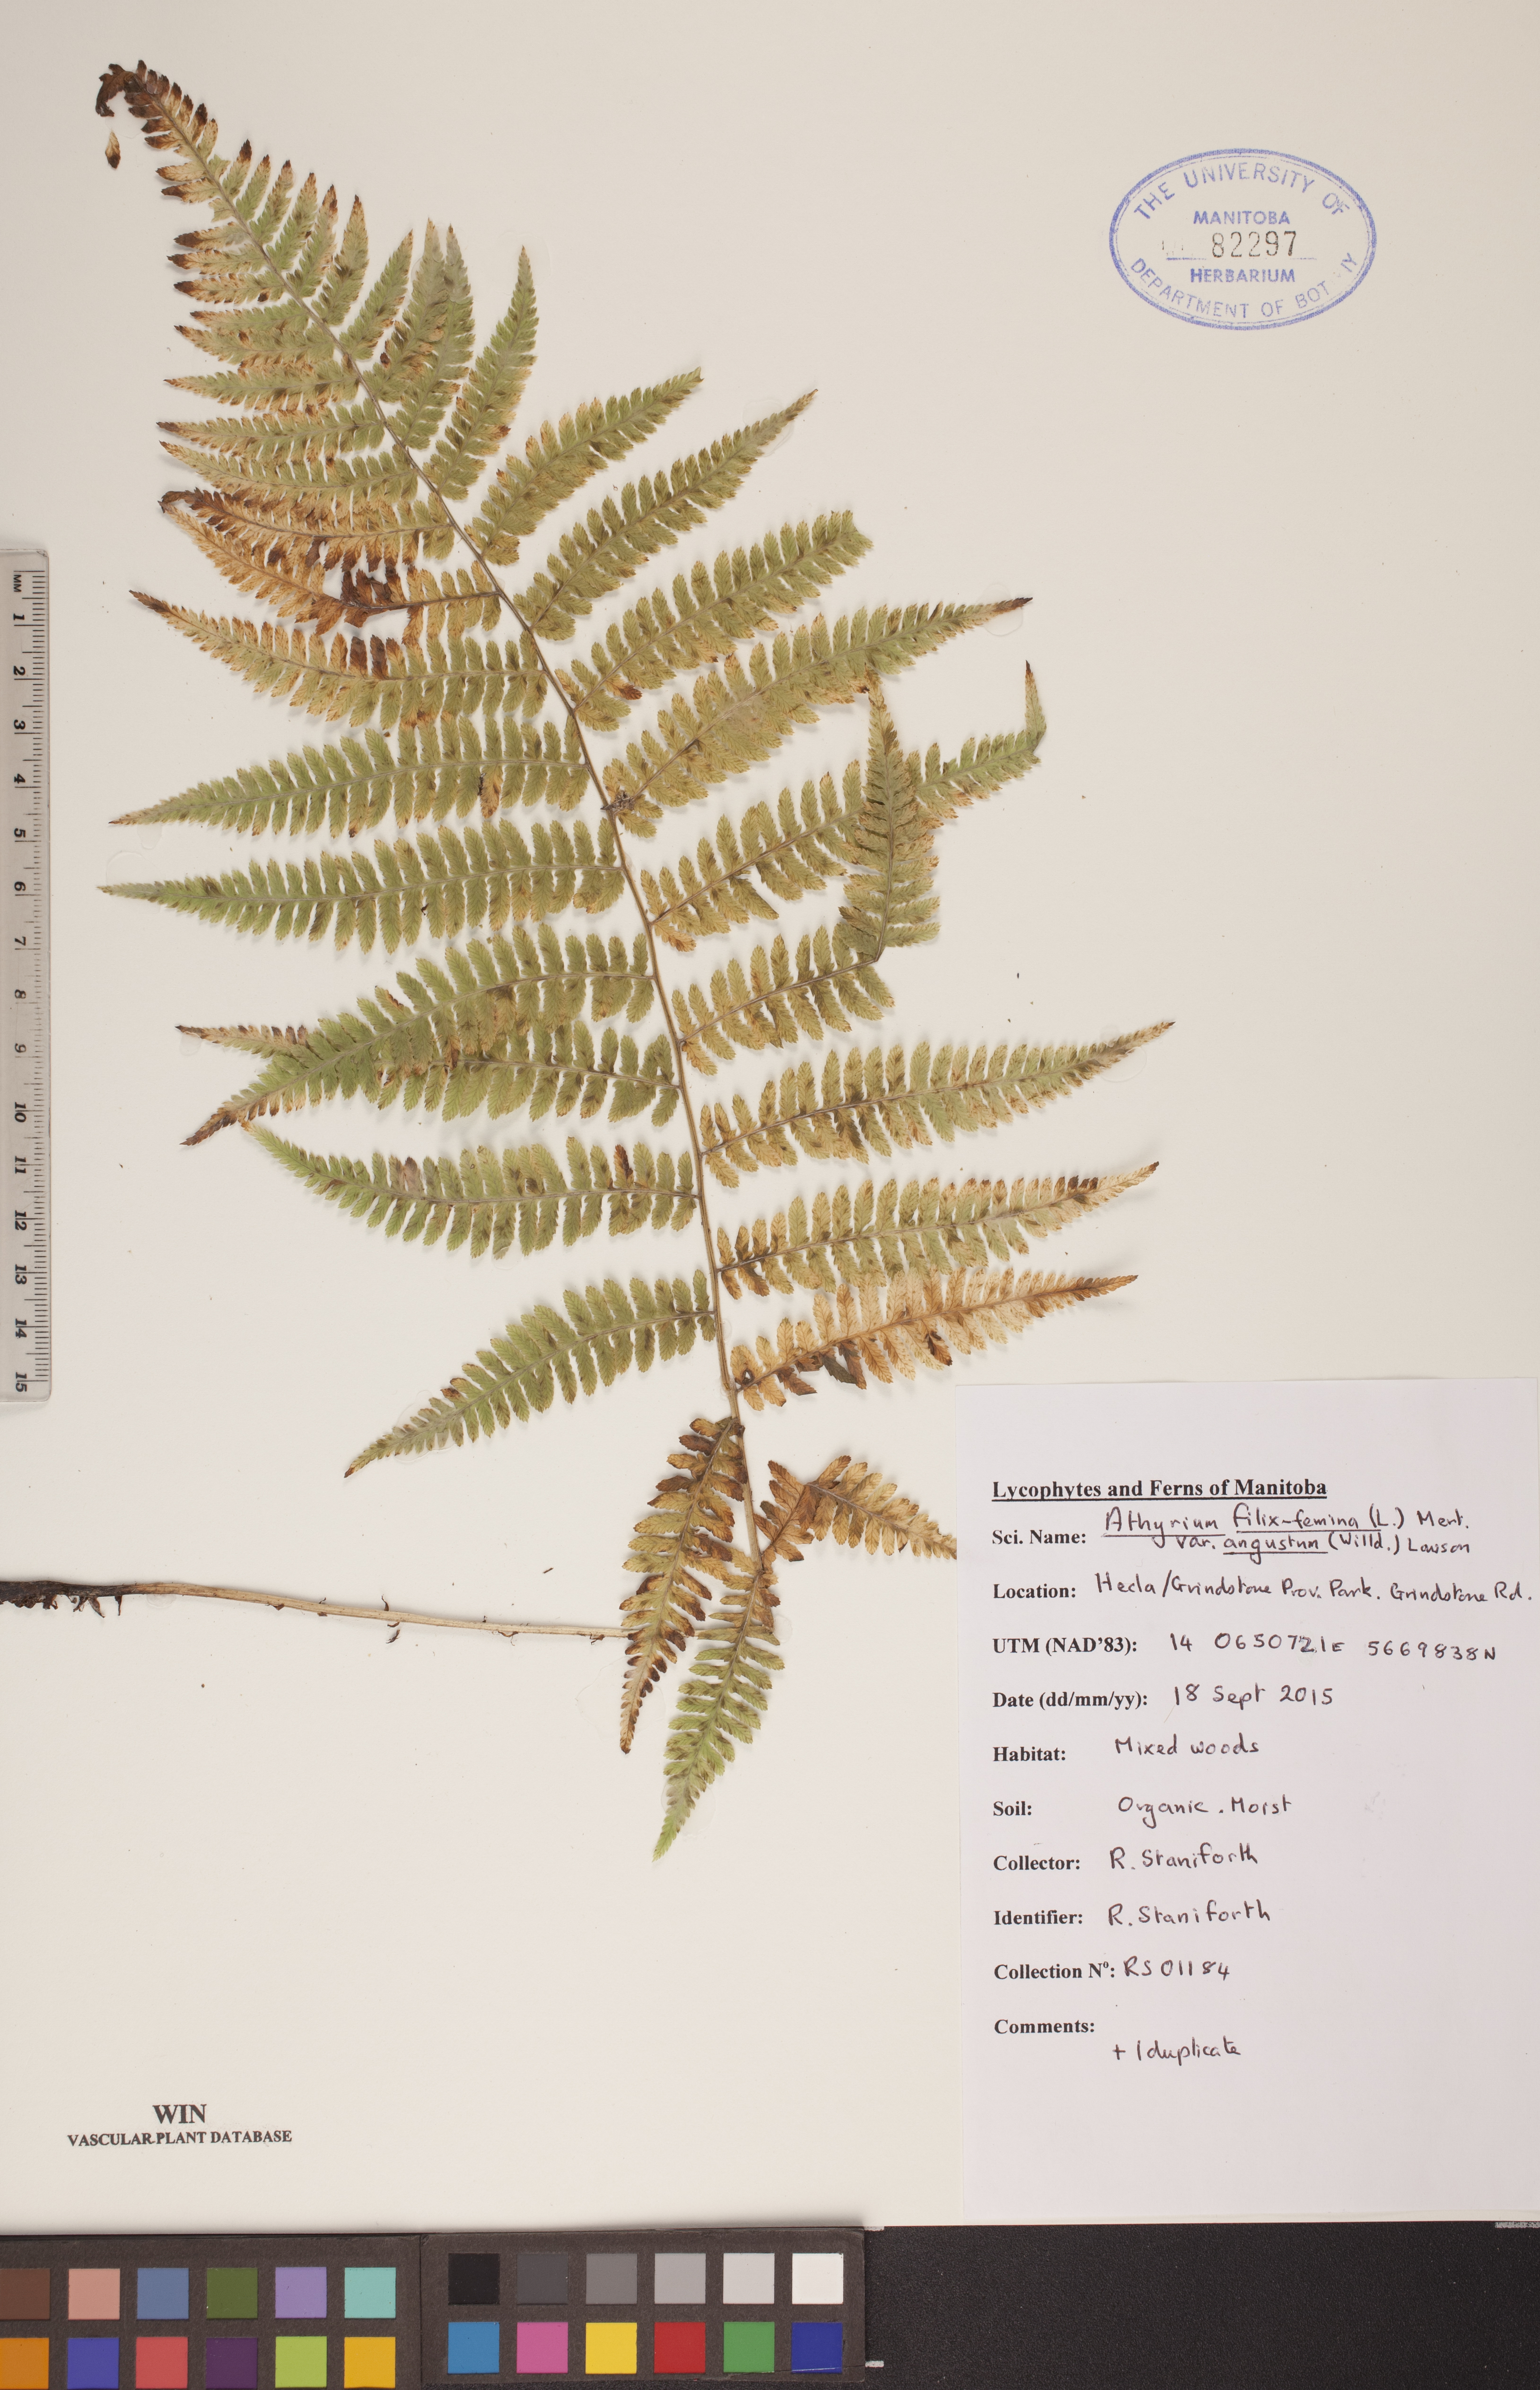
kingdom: Plantae
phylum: Tracheophyta
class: Polypodiopsida
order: Polypodiales
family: Athyriaceae
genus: Athyrium
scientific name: Athyrium angustum
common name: Northern lady fern
